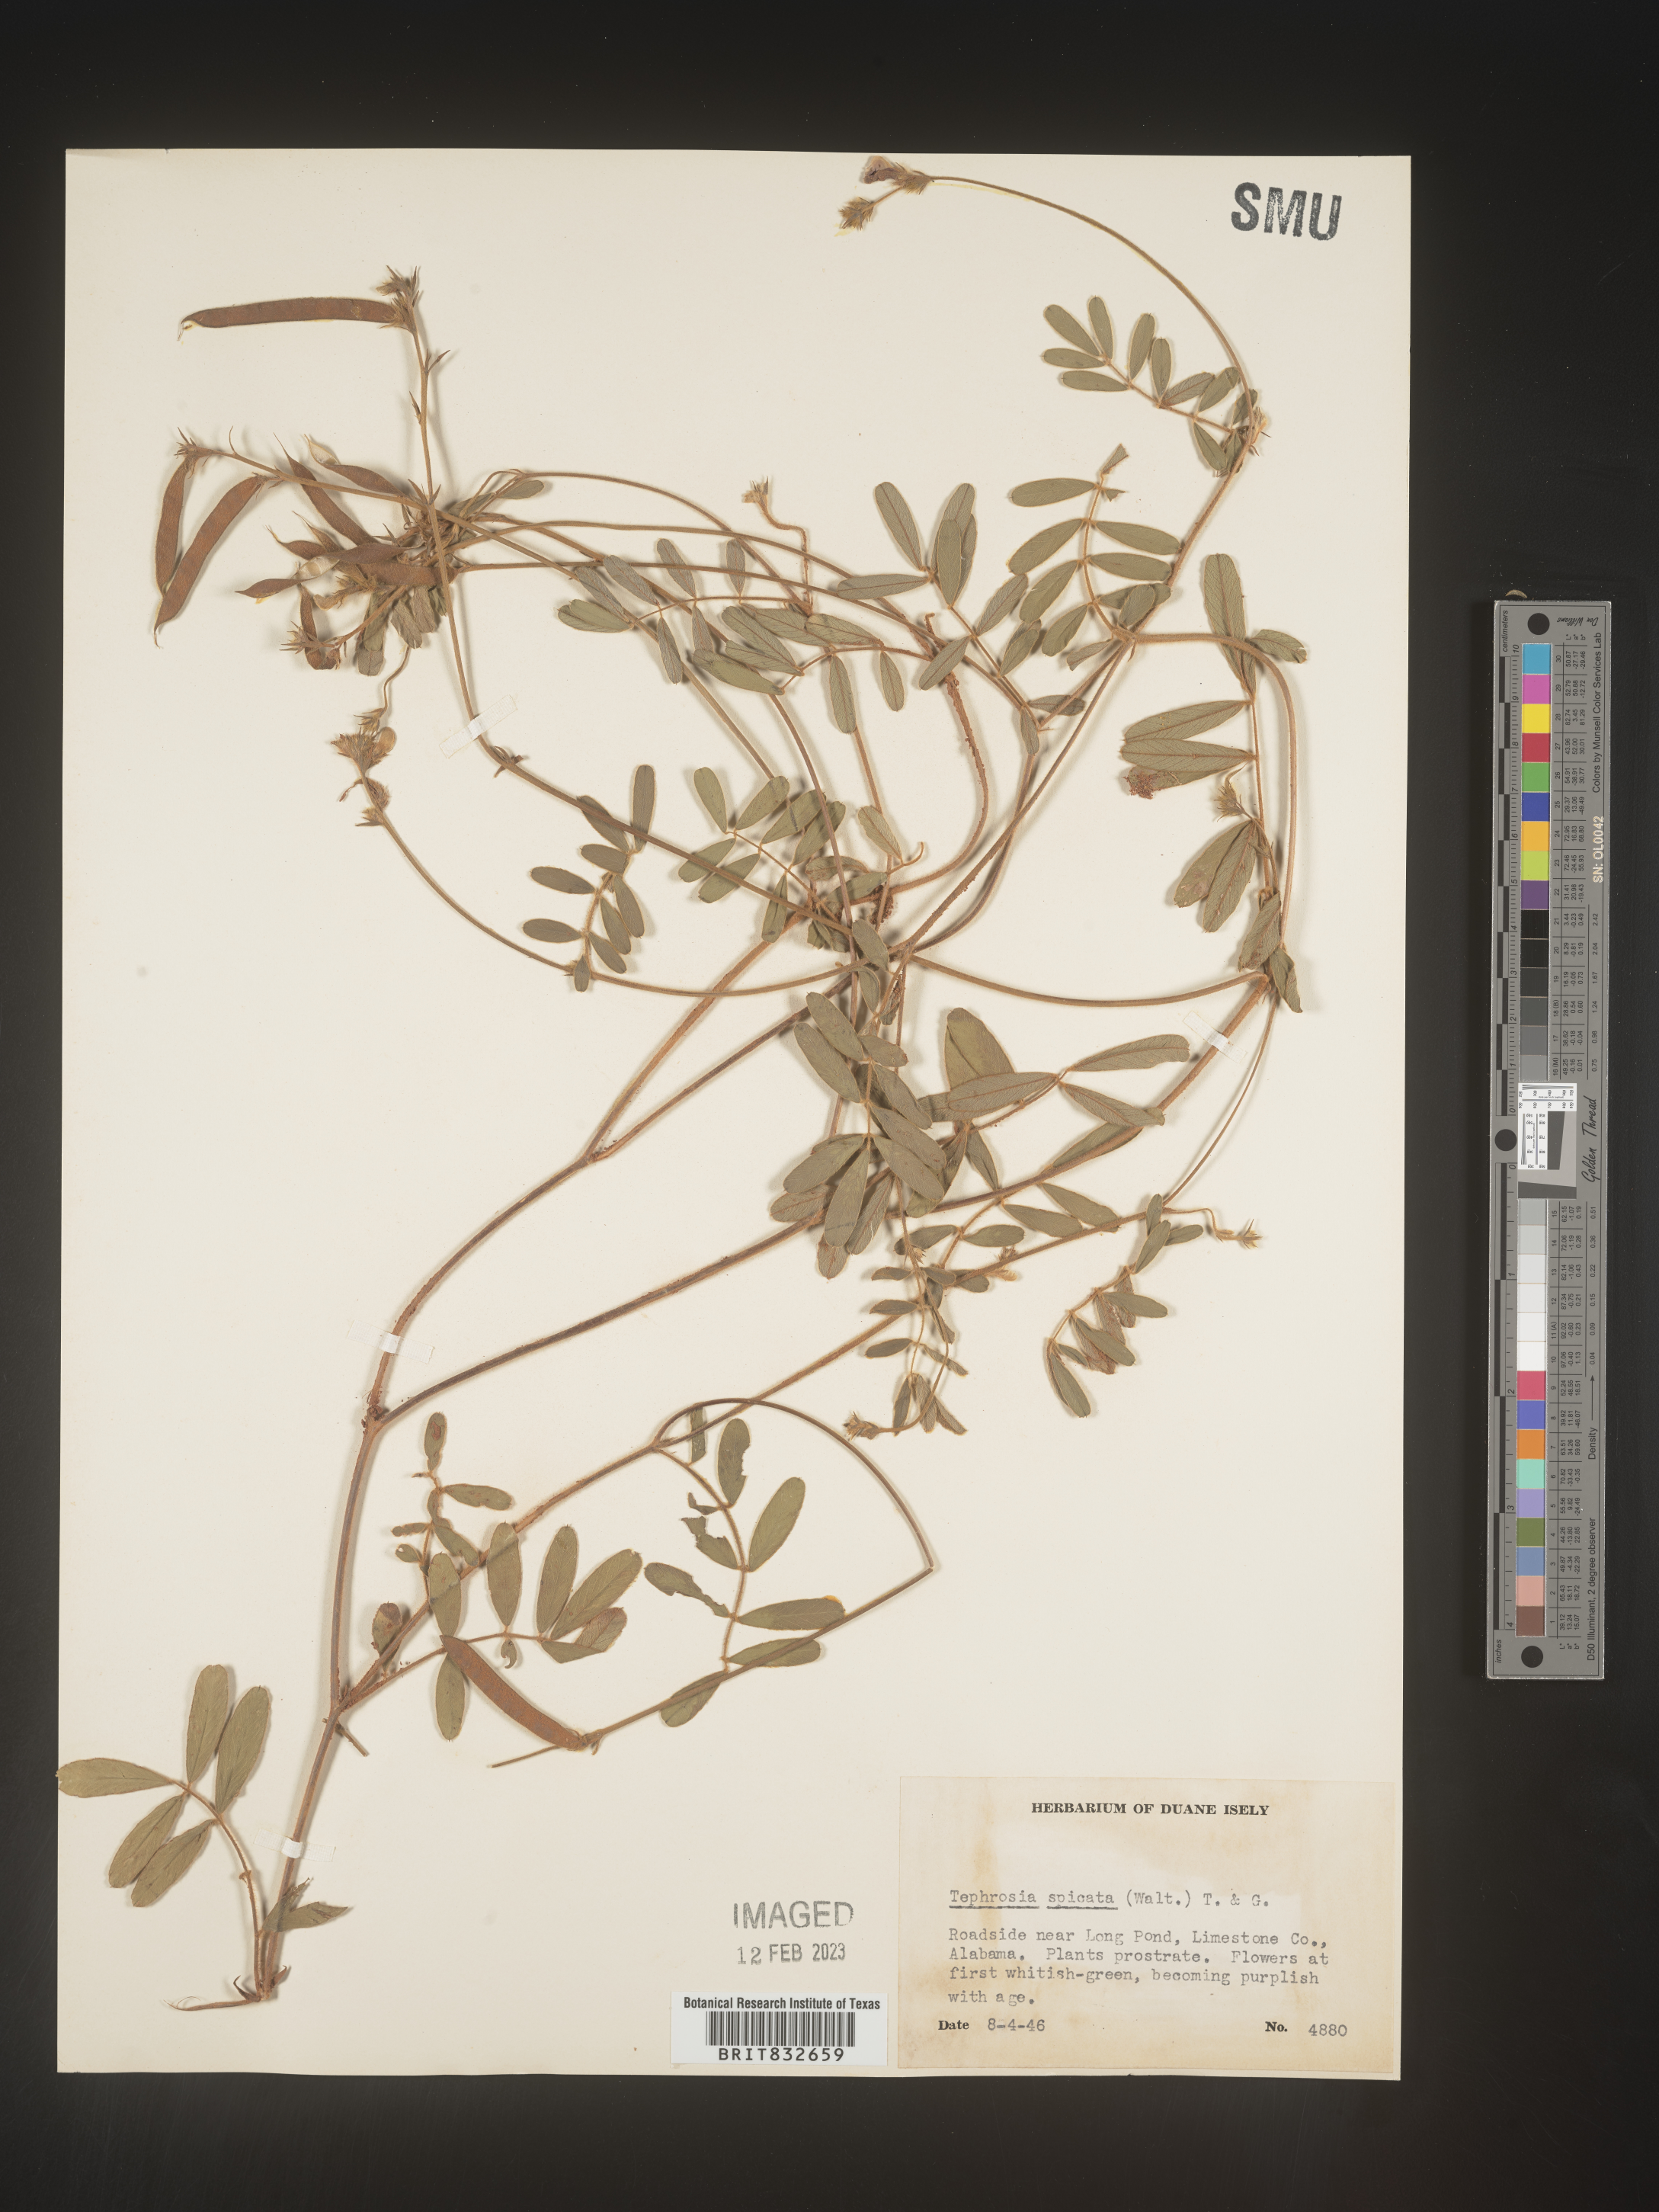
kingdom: Plantae
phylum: Tracheophyta
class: Magnoliopsida
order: Fabales
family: Fabaceae
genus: Tephrosia
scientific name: Tephrosia spicata
